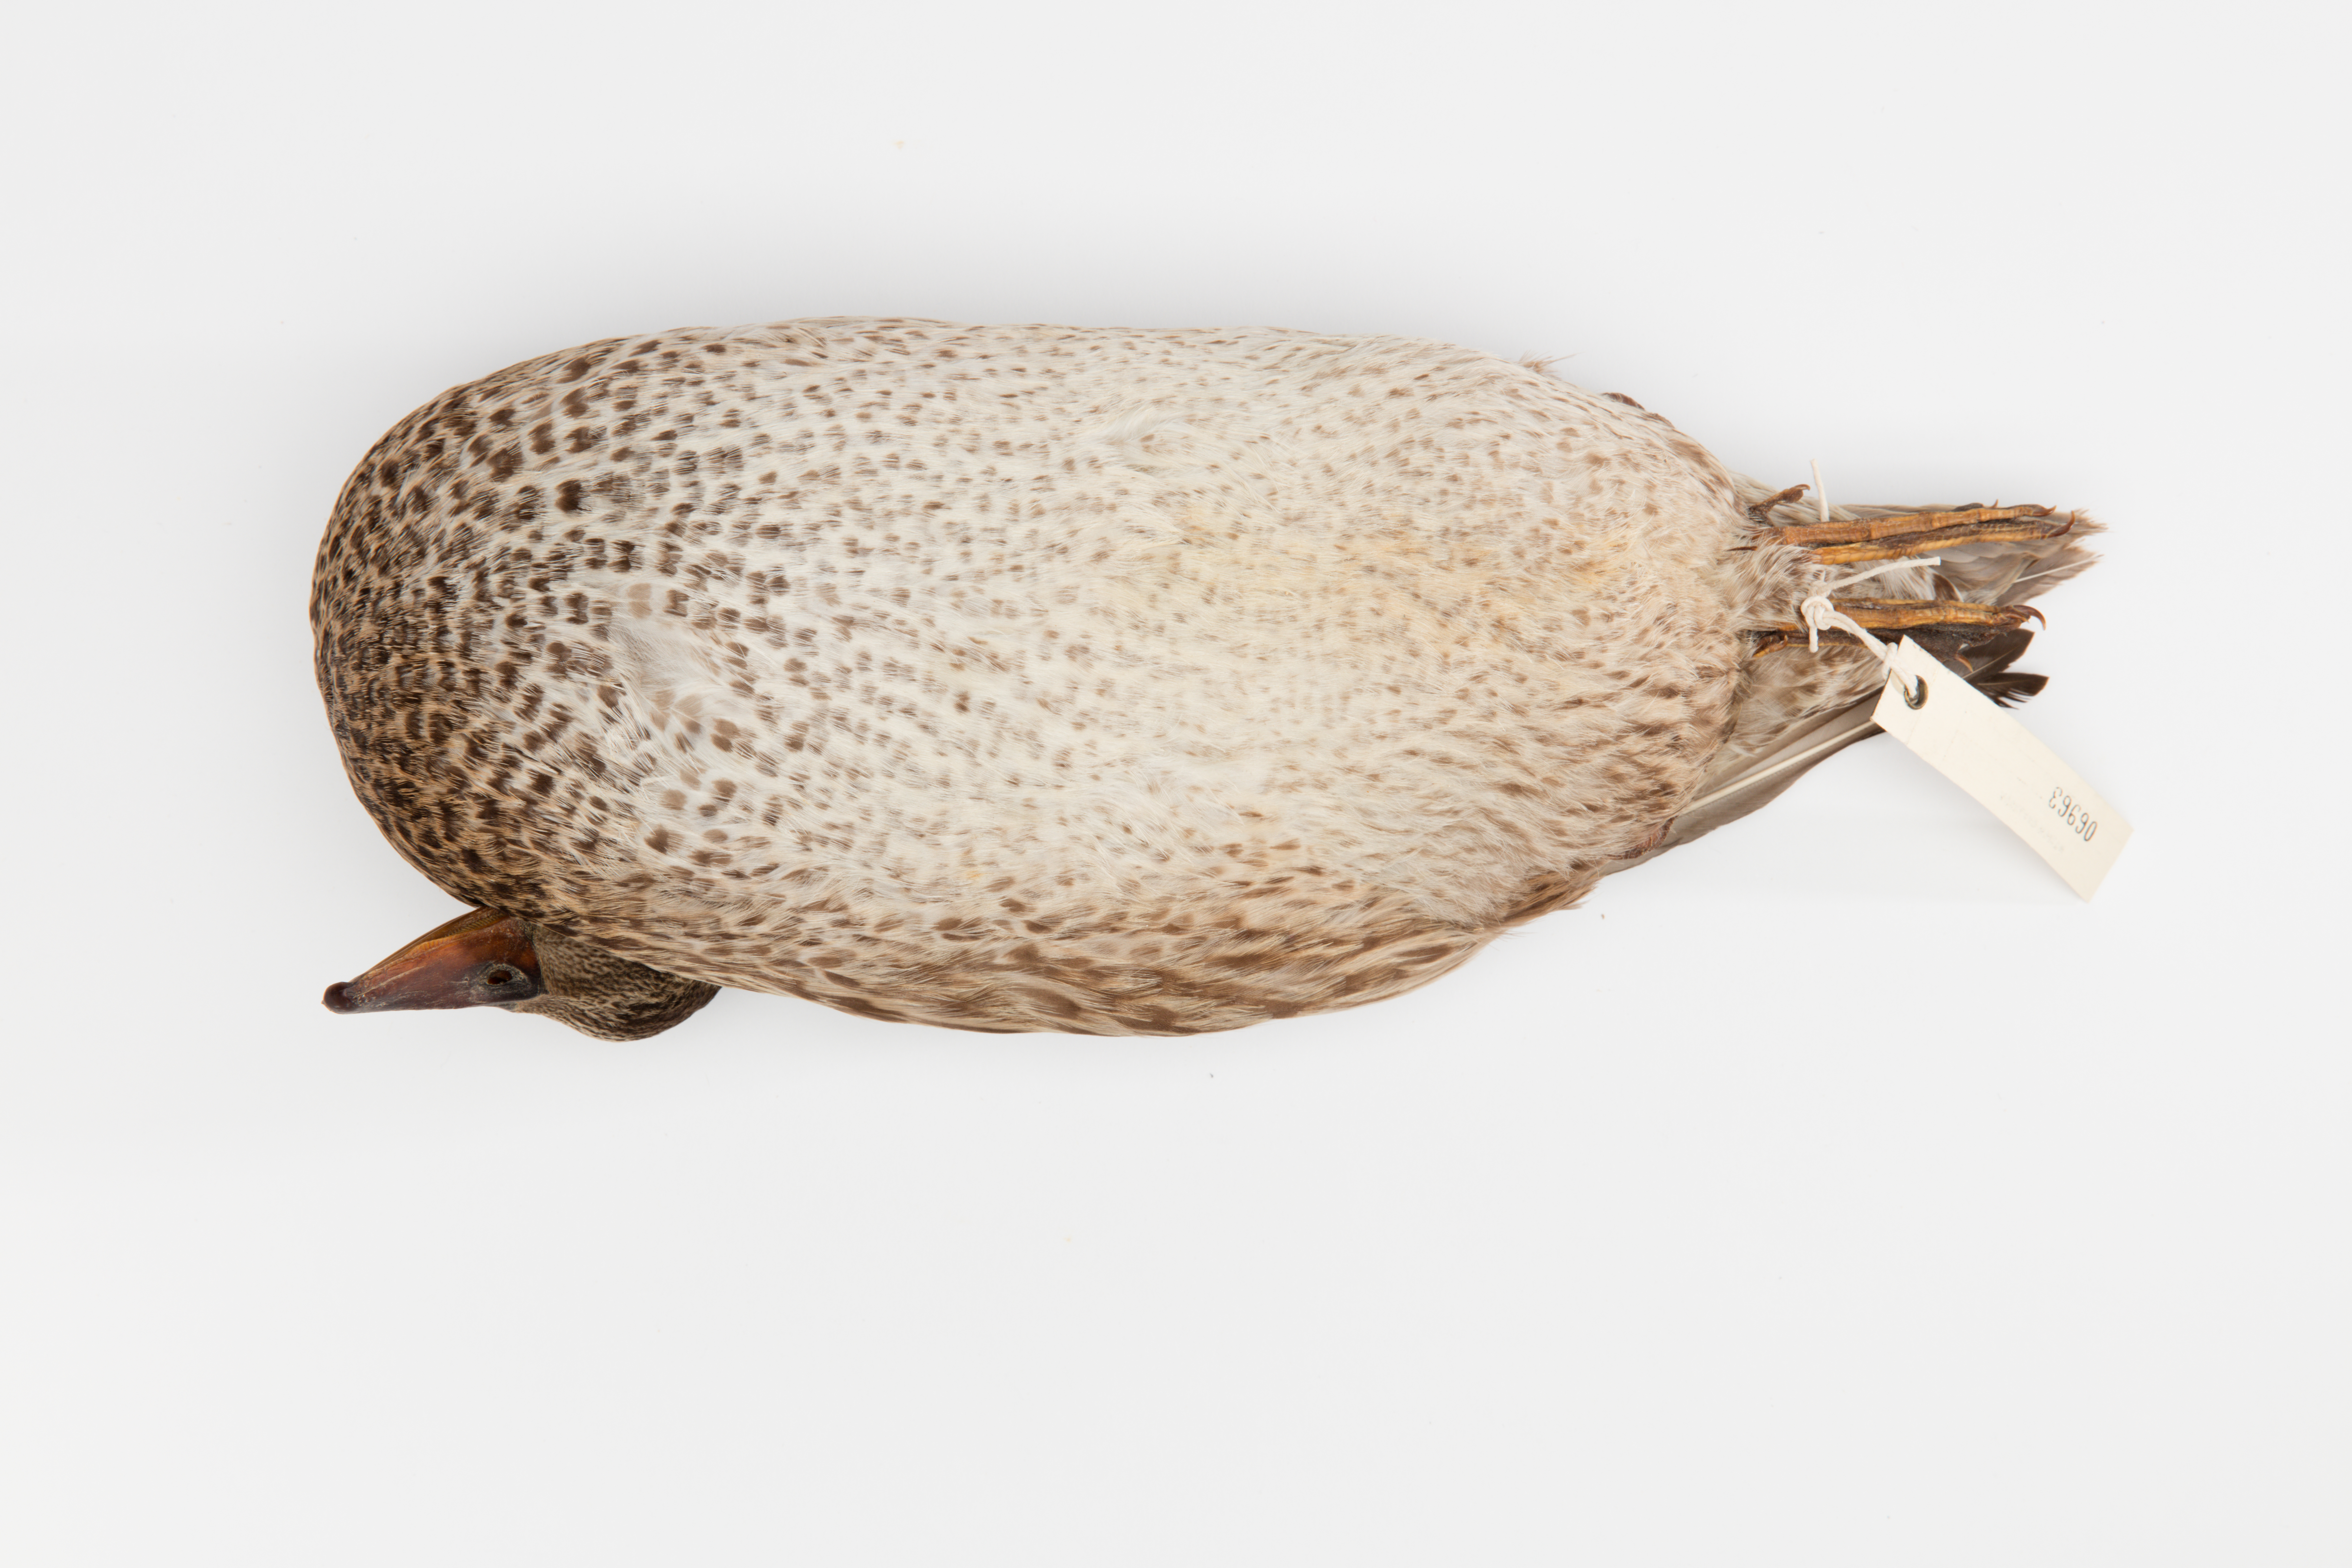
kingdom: Animalia
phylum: Chordata
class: Aves
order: Anseriformes
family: Anatidae
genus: Mareca
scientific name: Mareca strepera
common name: Gadwall
